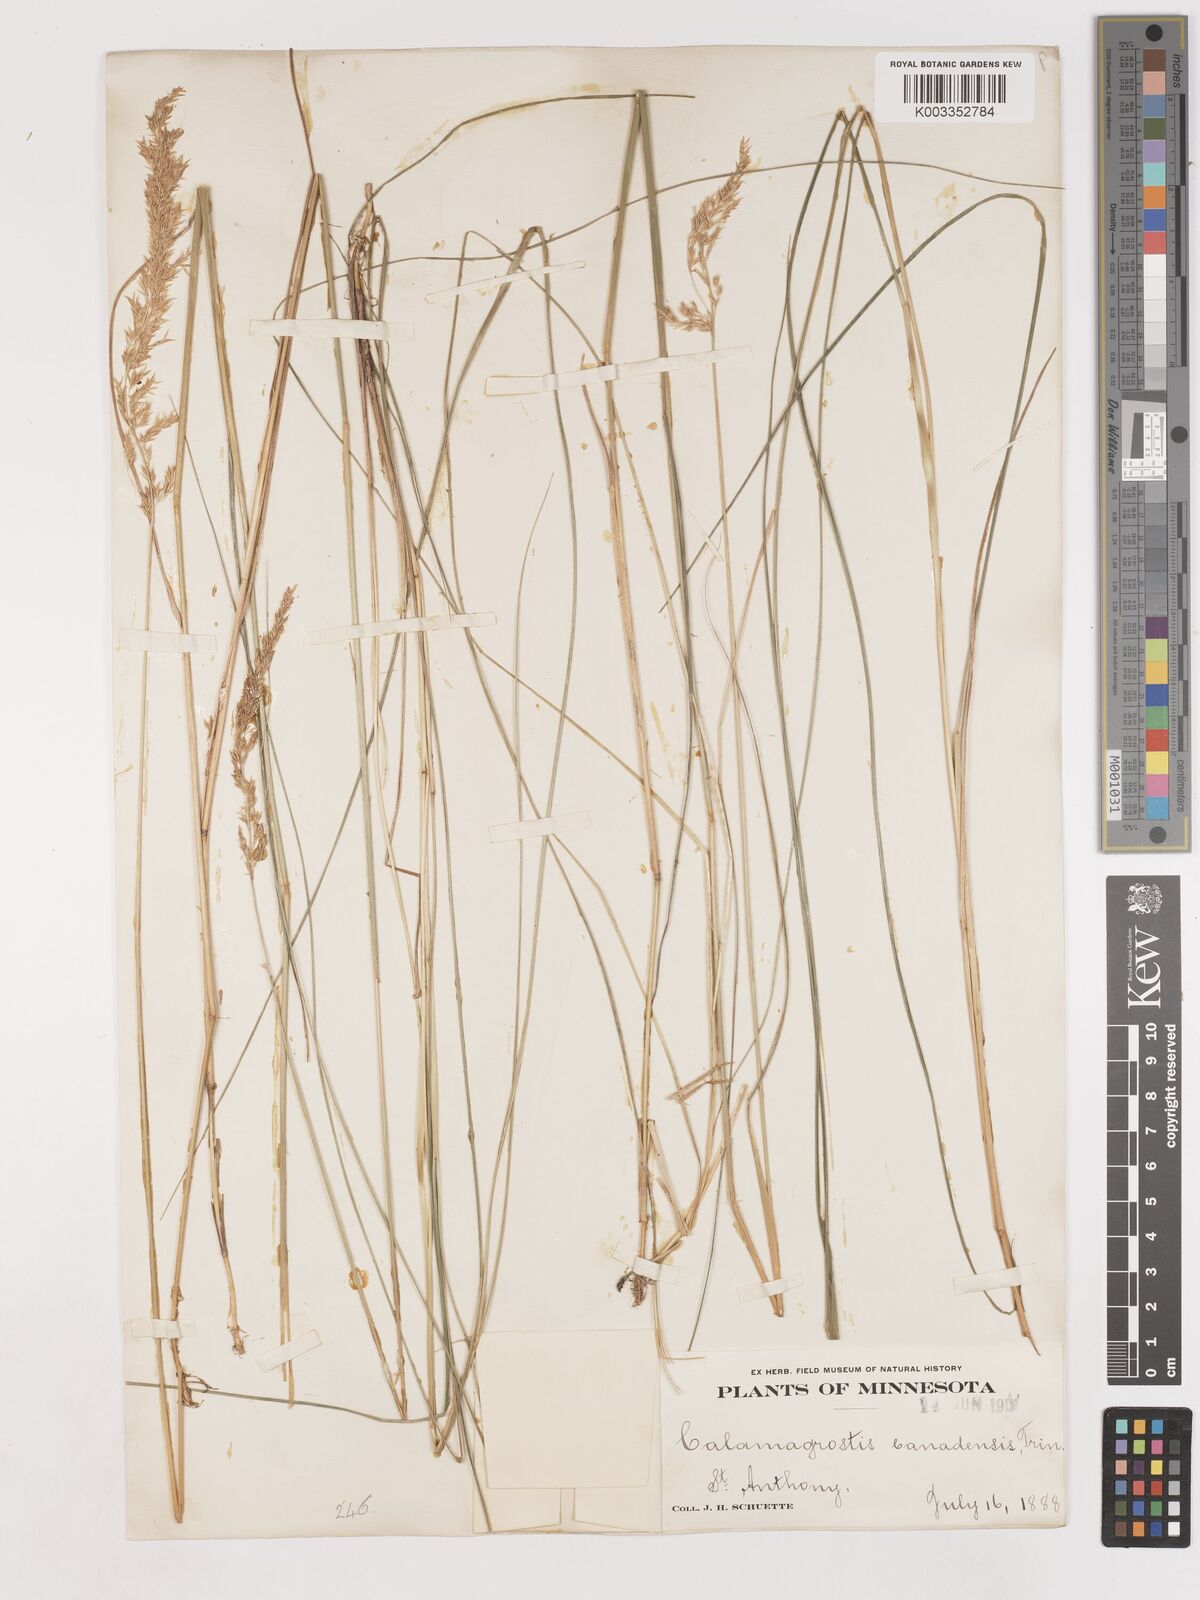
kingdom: Plantae
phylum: Tracheophyta
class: Liliopsida
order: Poales
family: Poaceae
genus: Calamagrostis
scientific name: Calamagrostis canadensis
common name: Canada bluejoint
